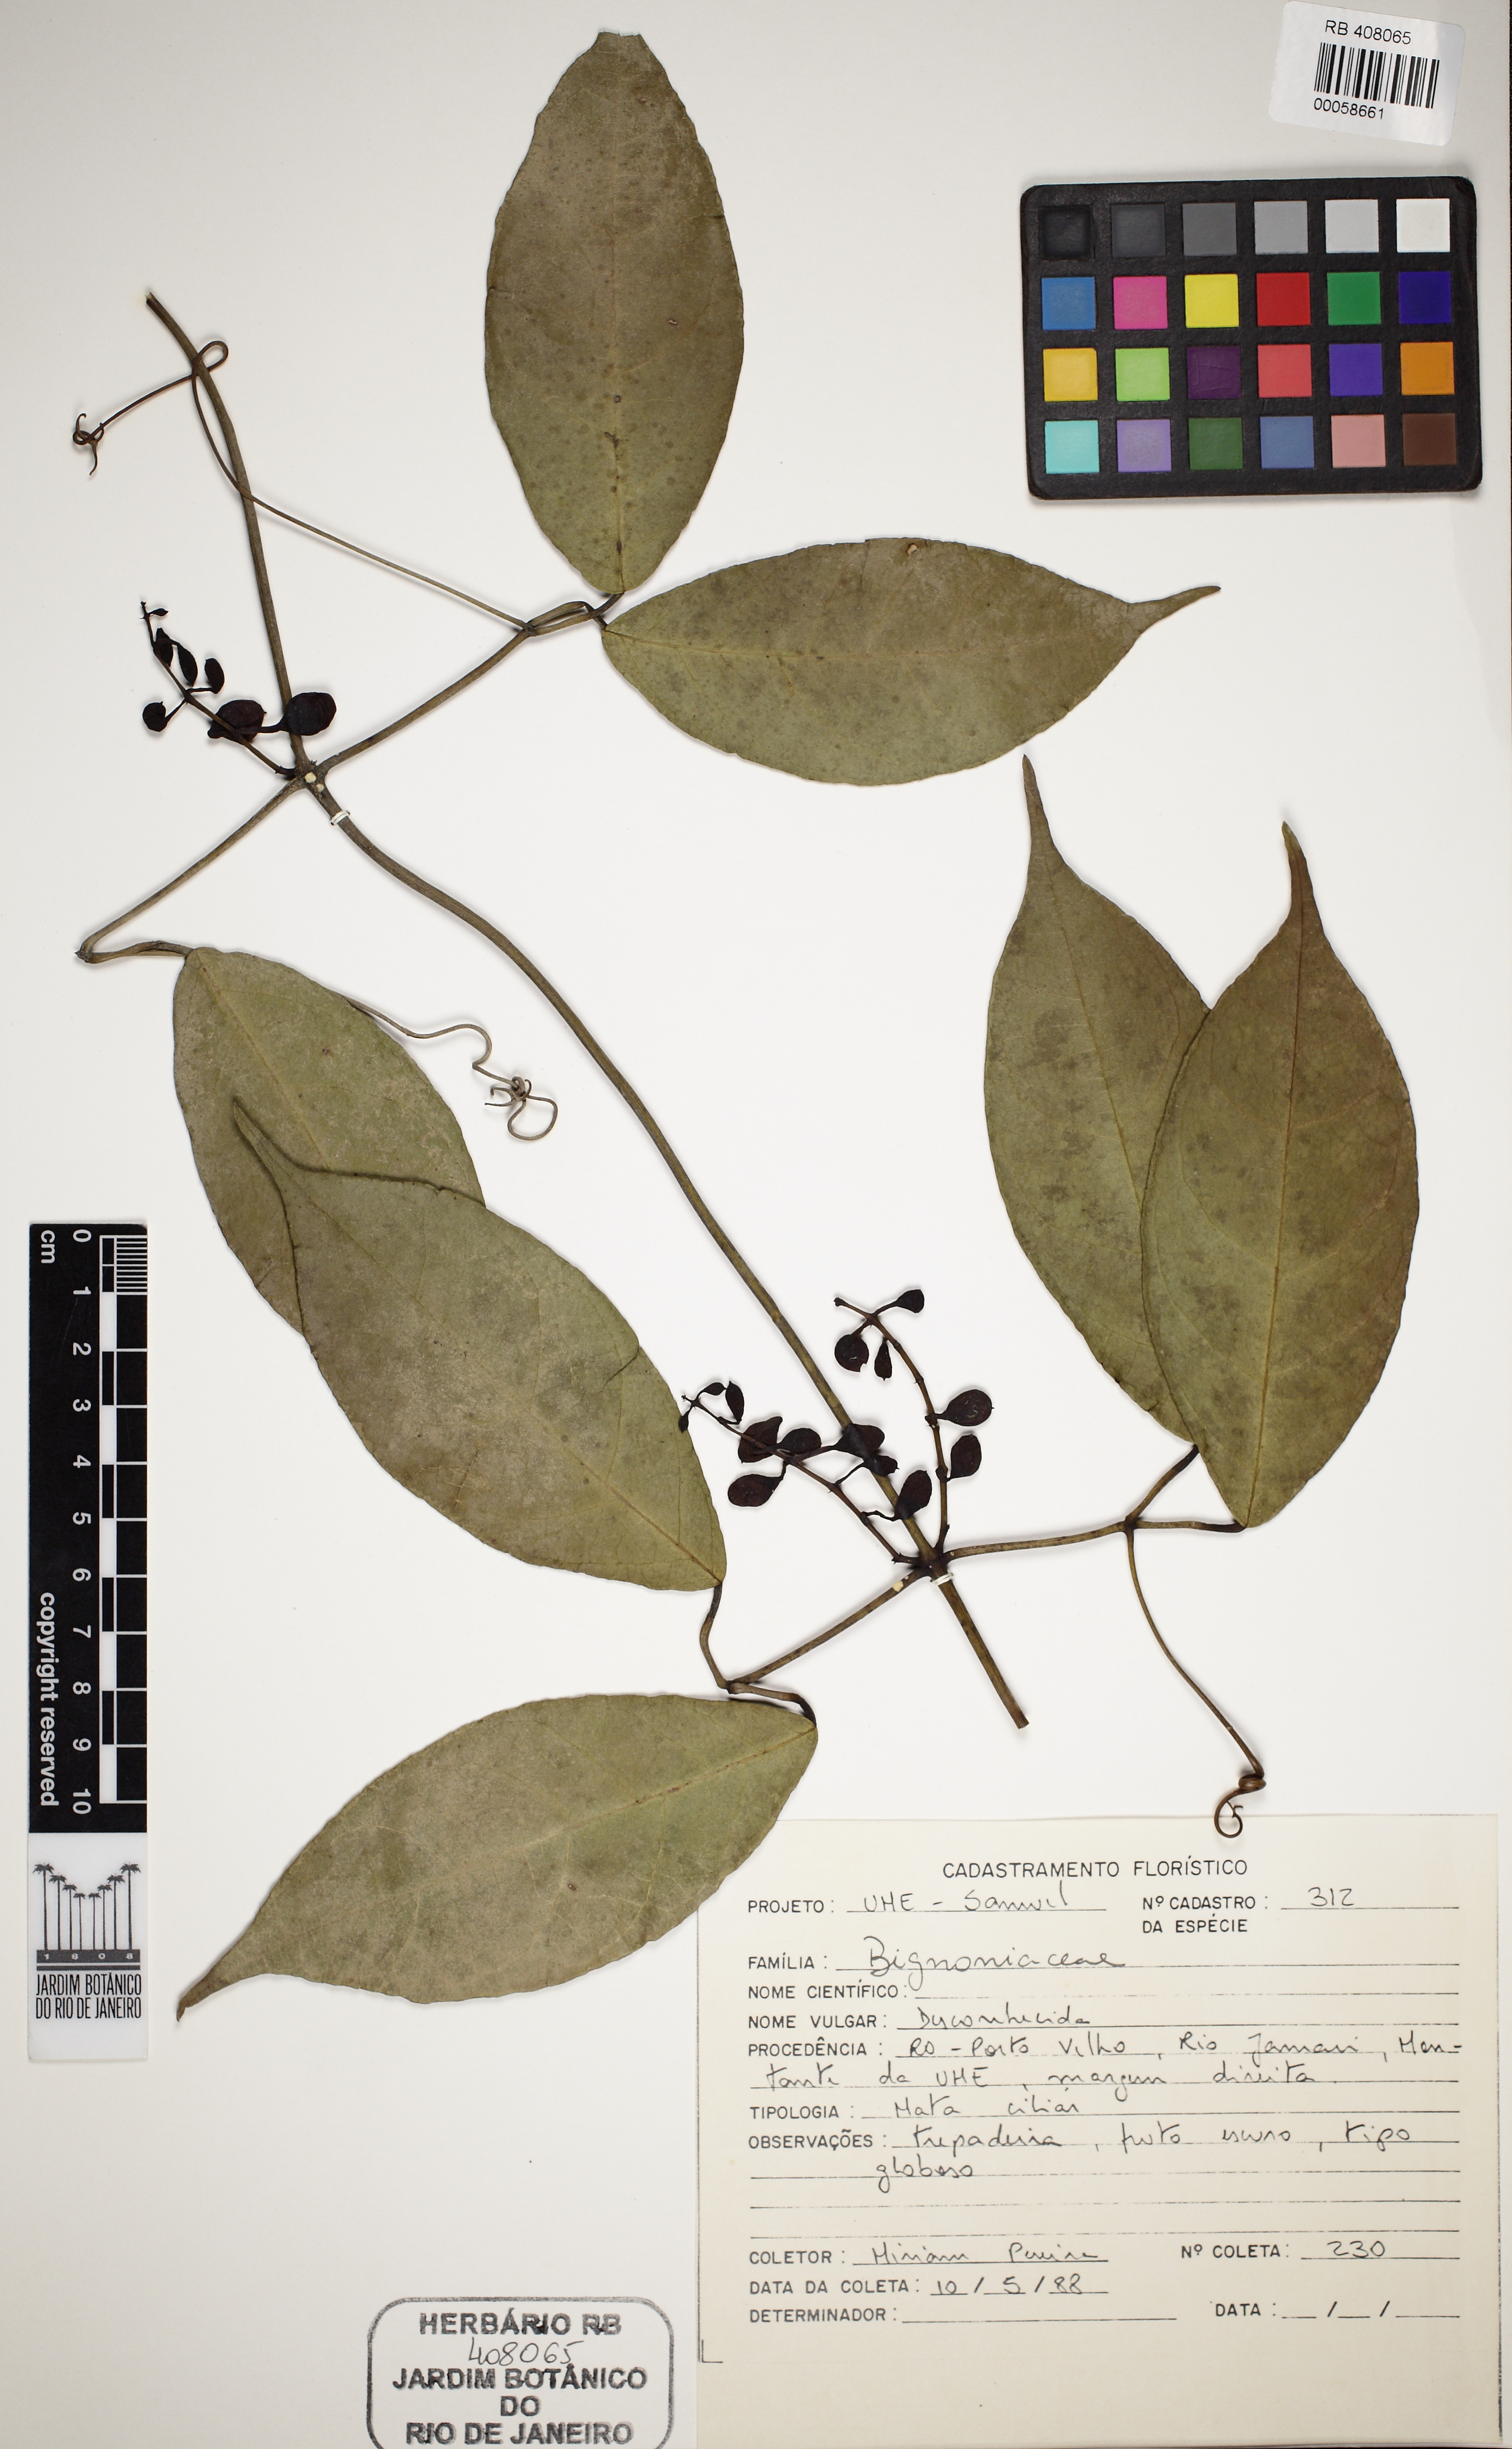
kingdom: Animalia
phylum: Arthropoda
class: Insecta
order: Coleoptera
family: Chrysomelidae
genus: Martinella
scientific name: Martinella obovata
